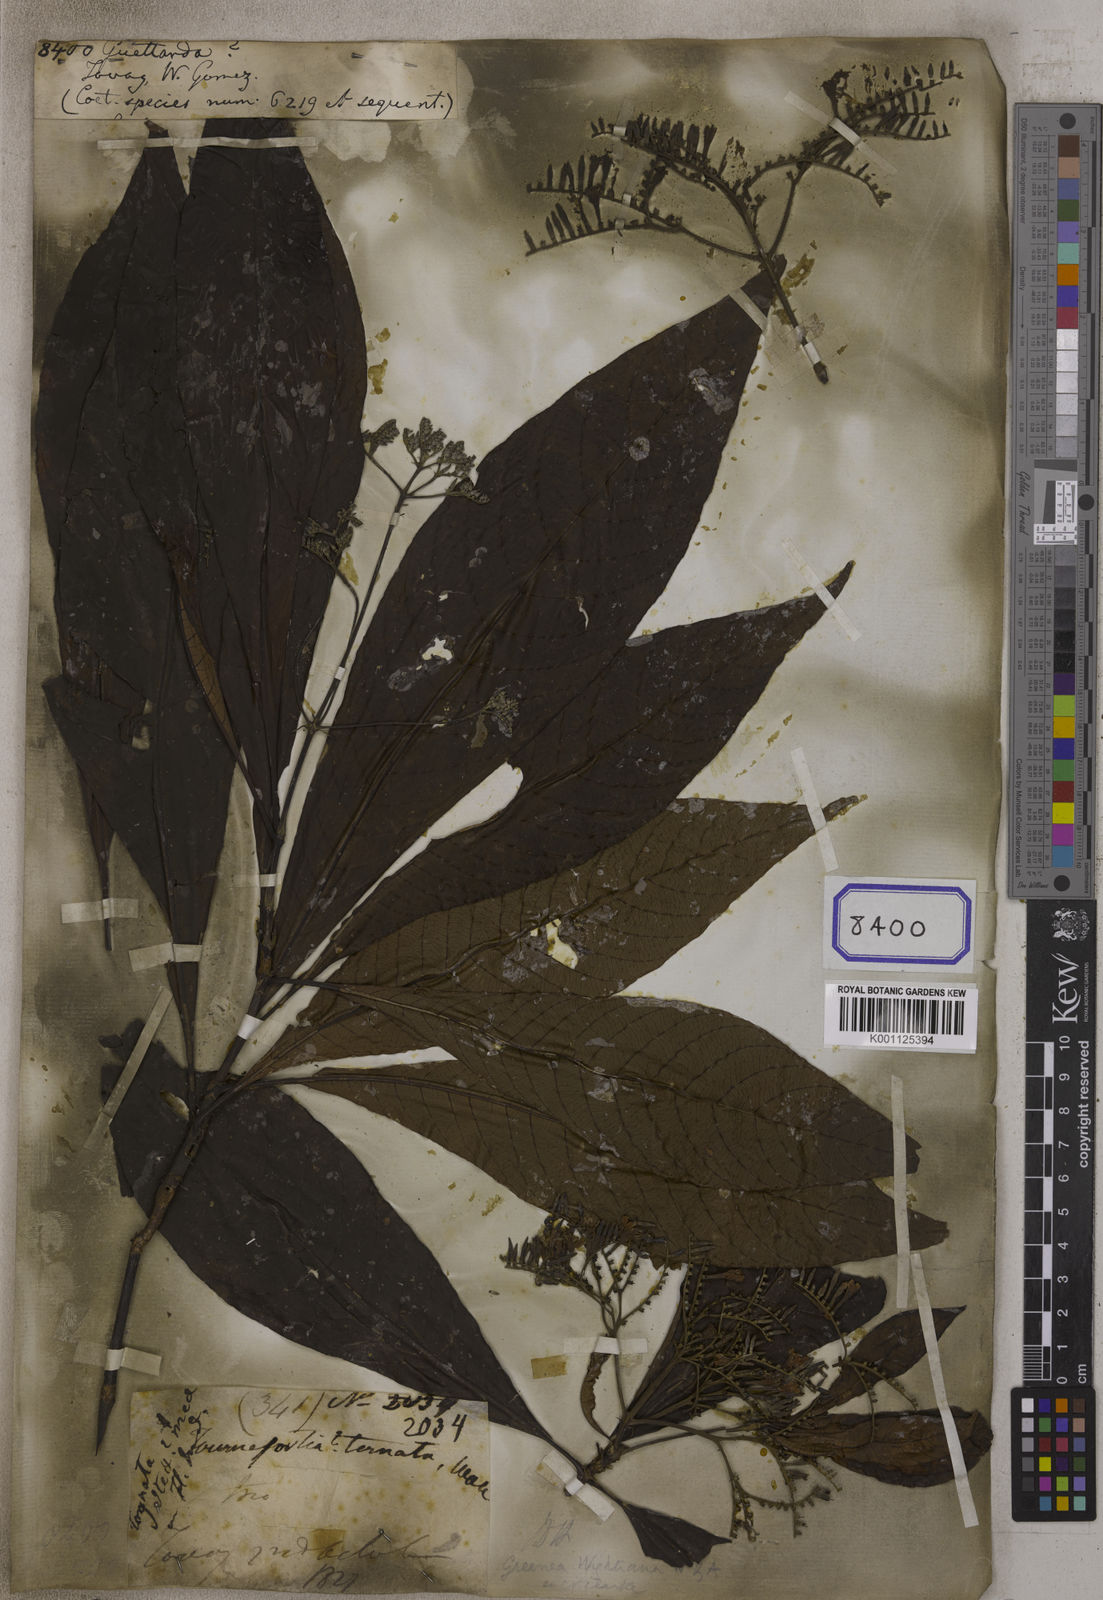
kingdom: Plantae
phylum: Tracheophyta
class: Magnoliopsida
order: Gentianales
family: Rubiaceae
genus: Guettarda
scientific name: Guettarda
